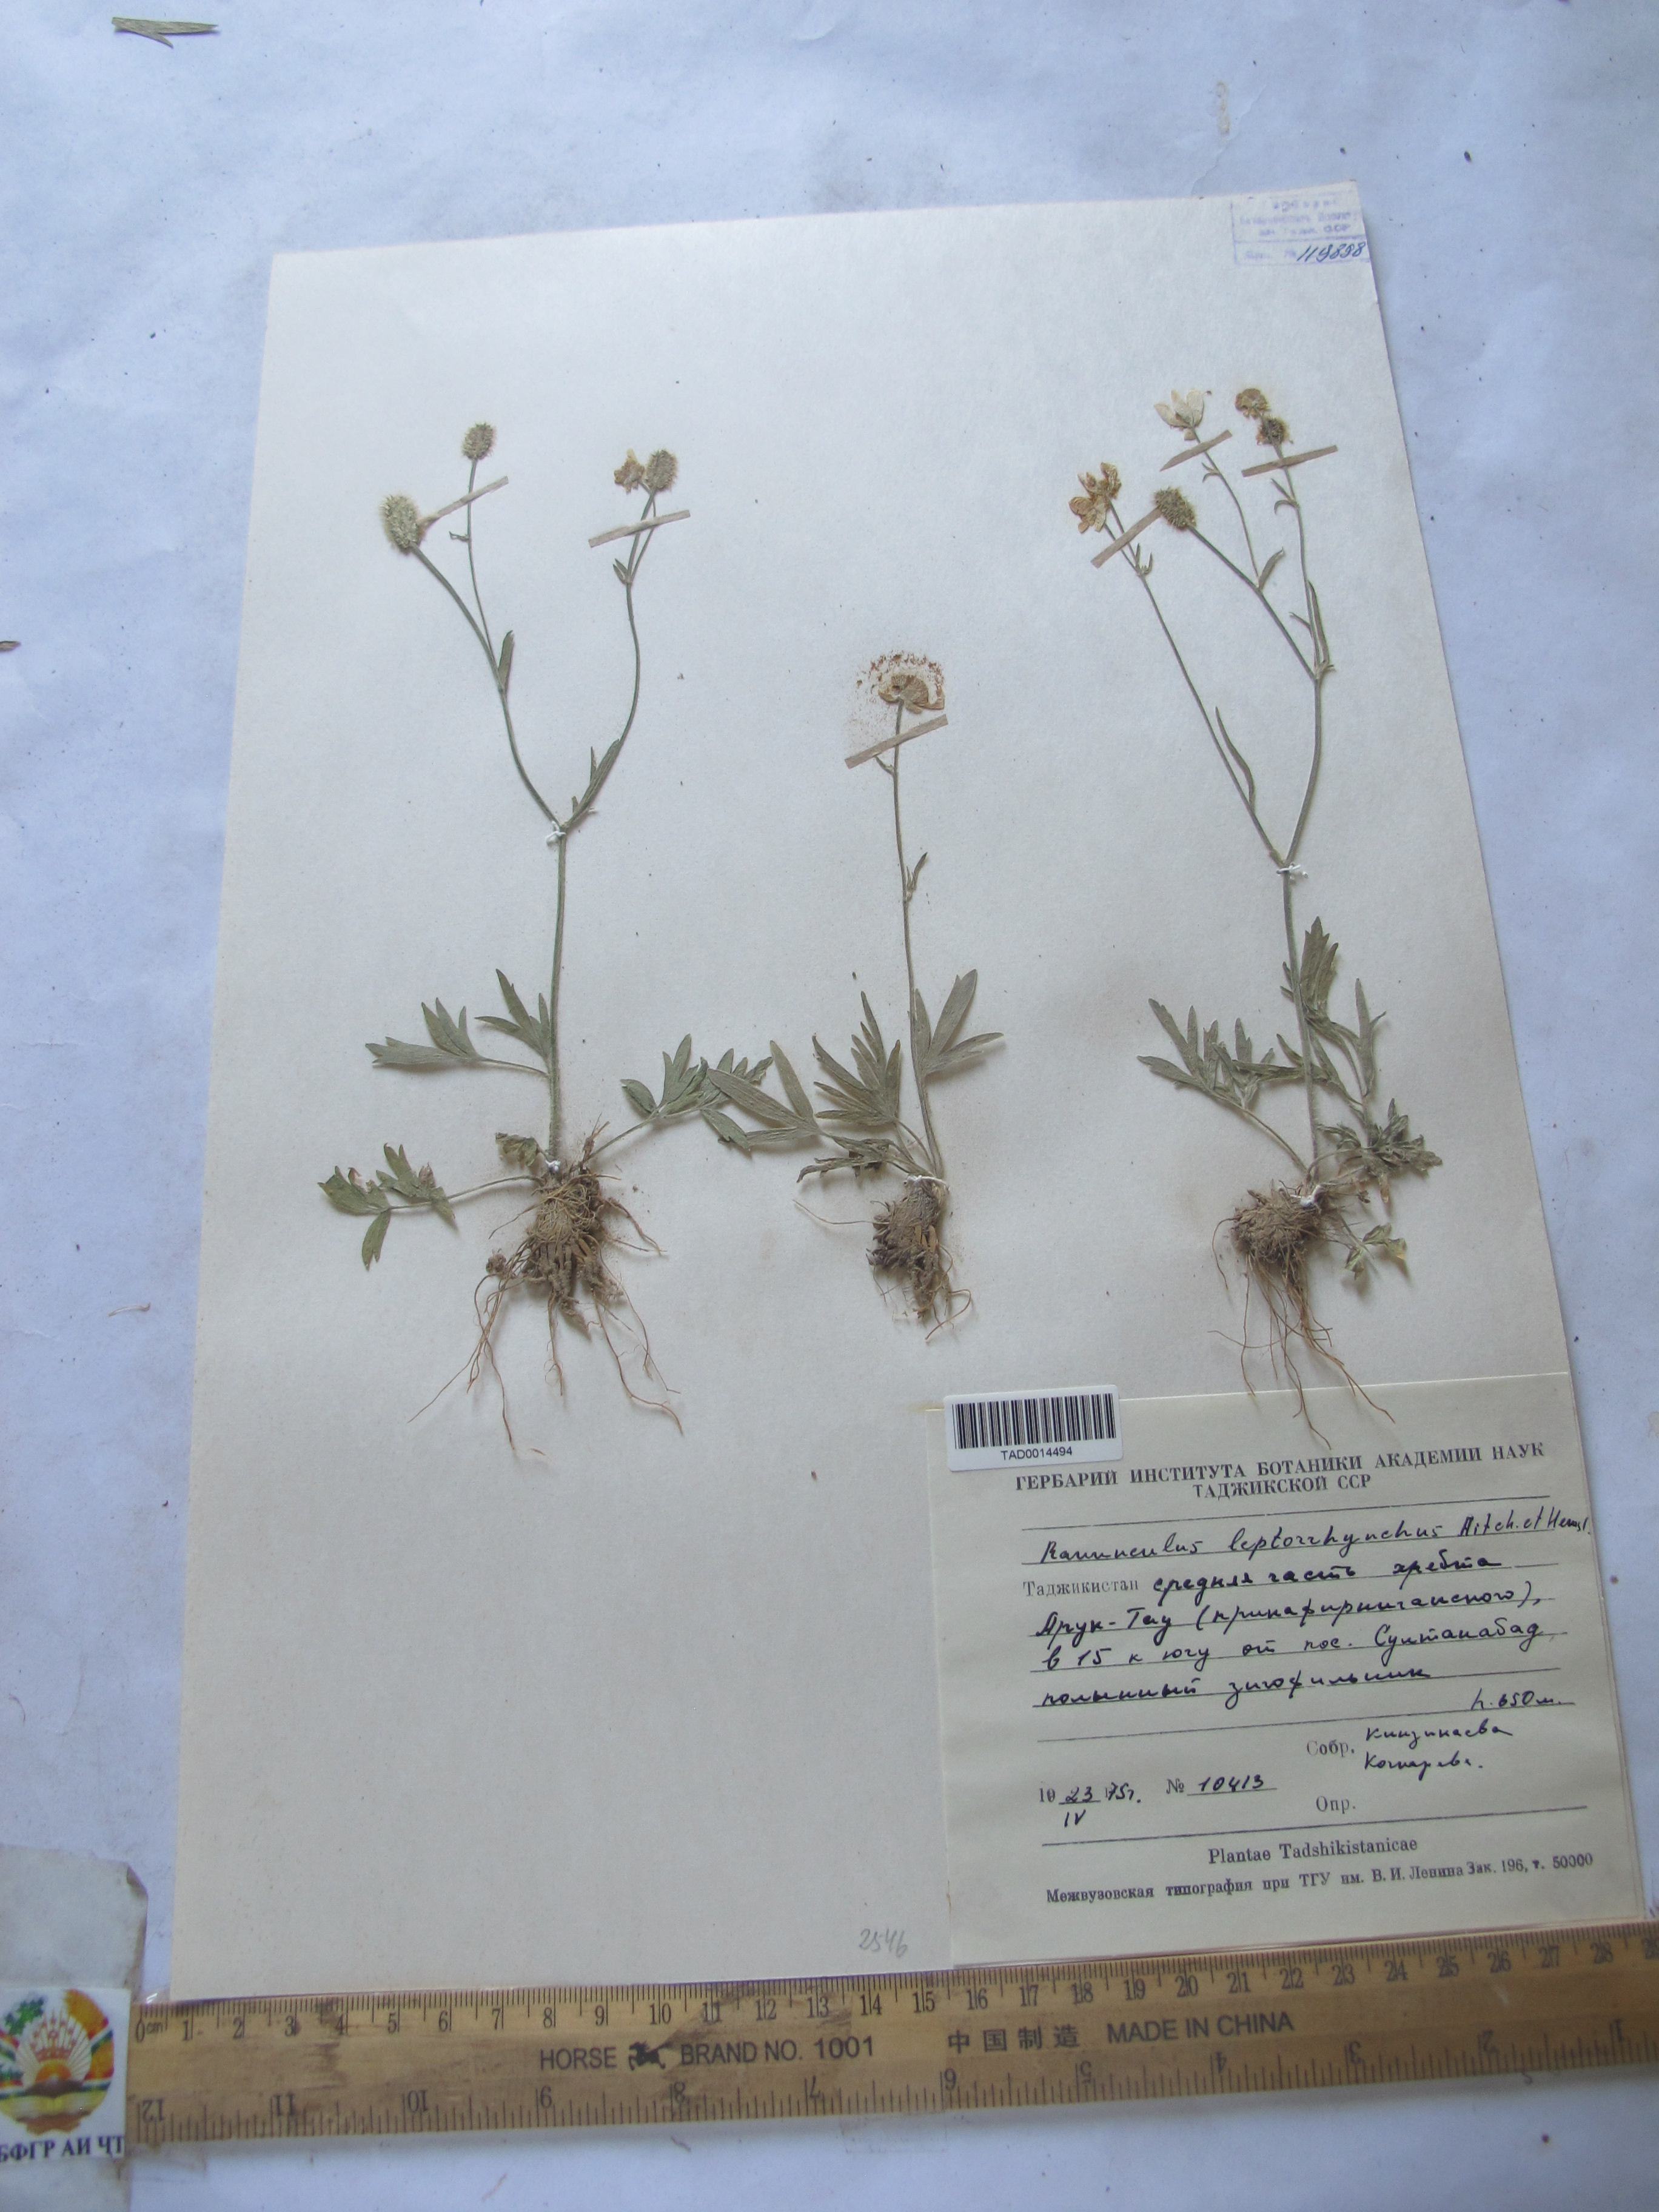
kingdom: Plantae
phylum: Tracheophyta
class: Magnoliopsida
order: Ranunculales
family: Ranunculaceae
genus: Ranunculus
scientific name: Ranunculus leptorrhynchus
